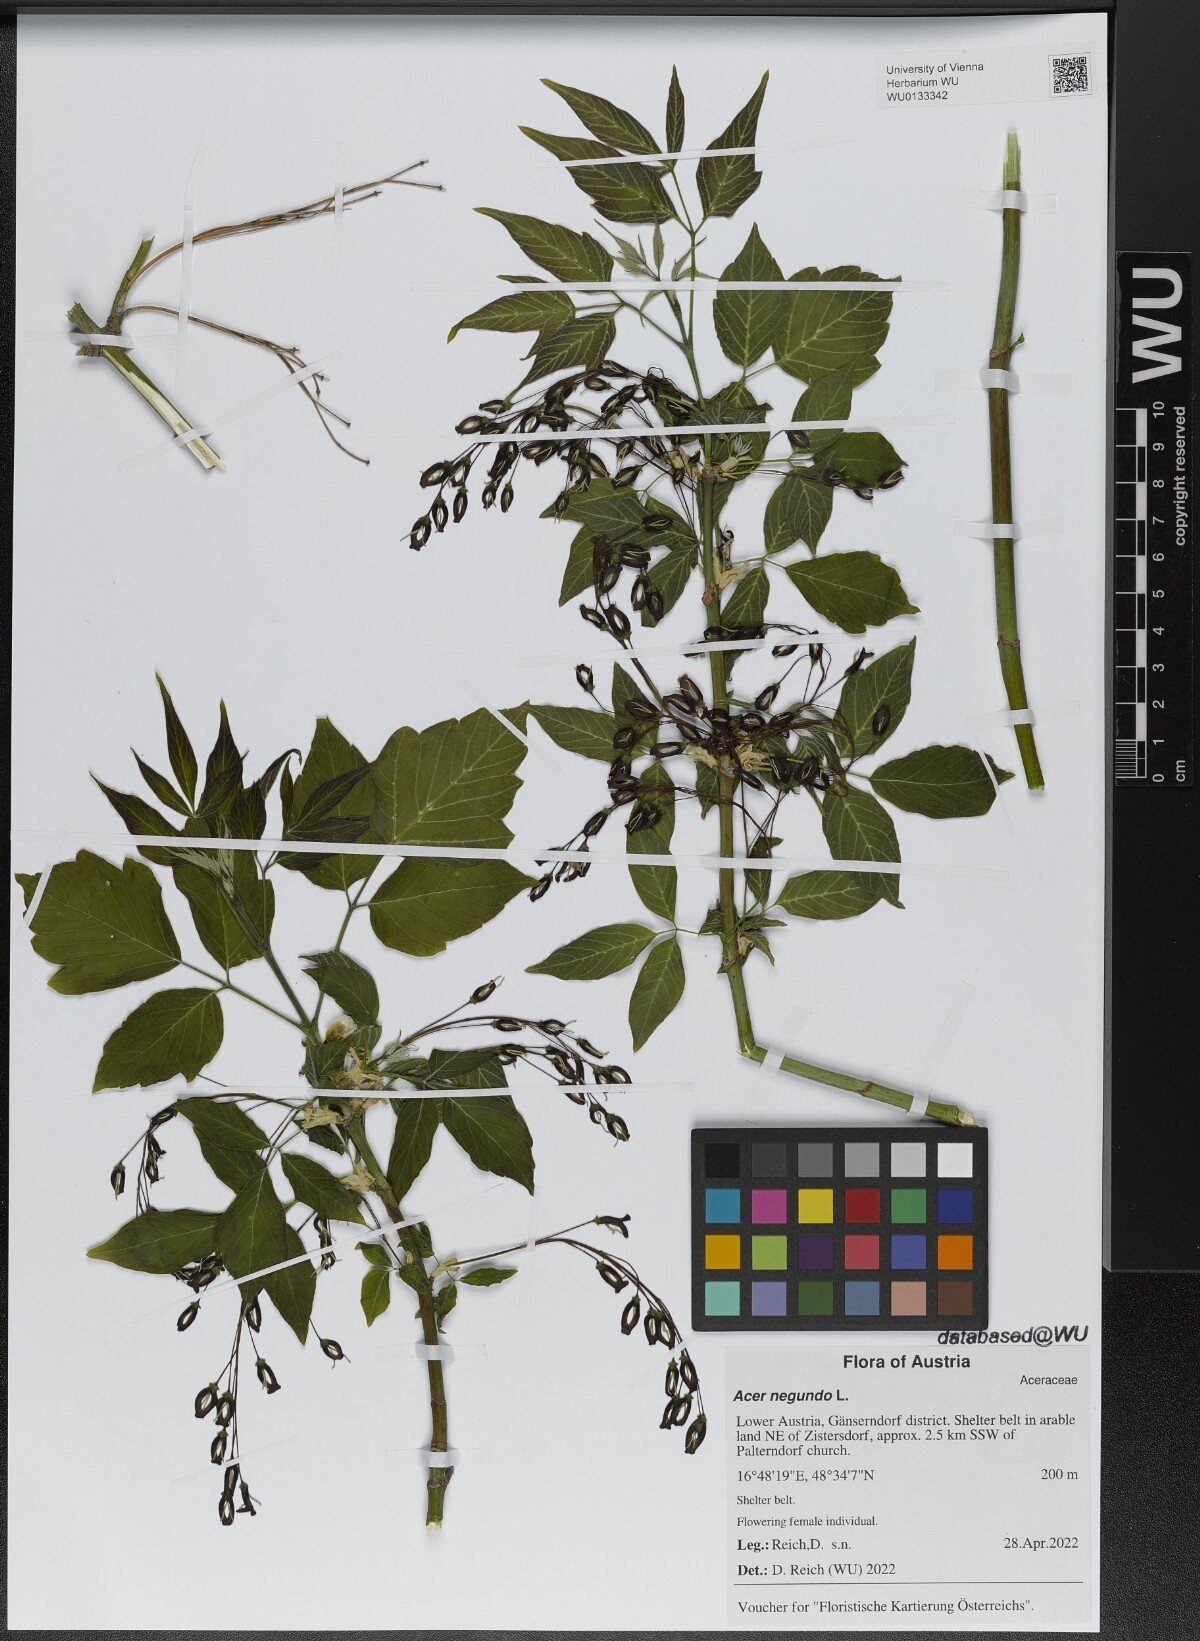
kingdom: Plantae
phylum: Tracheophyta
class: Magnoliopsida
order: Sapindales
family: Sapindaceae
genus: Acer
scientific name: Acer negundo
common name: Ashleaf maple
